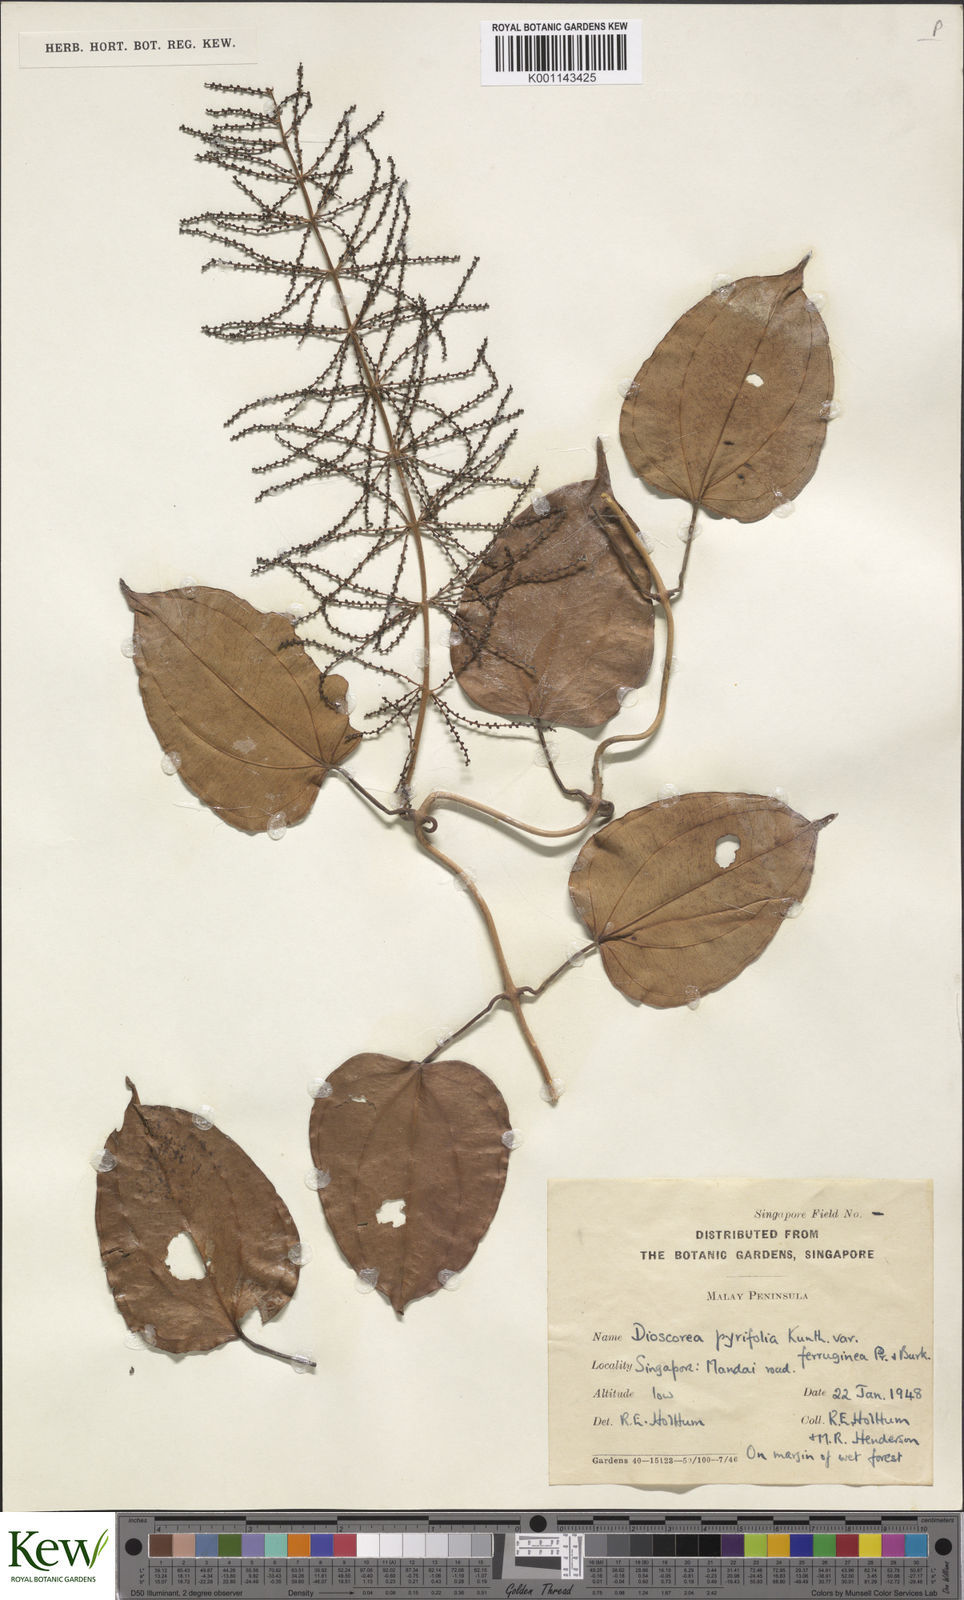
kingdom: Plantae
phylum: Tracheophyta
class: Liliopsida
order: Dioscoreales
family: Dioscoreaceae
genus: Dioscorea
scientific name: Dioscorea pyrifolia
